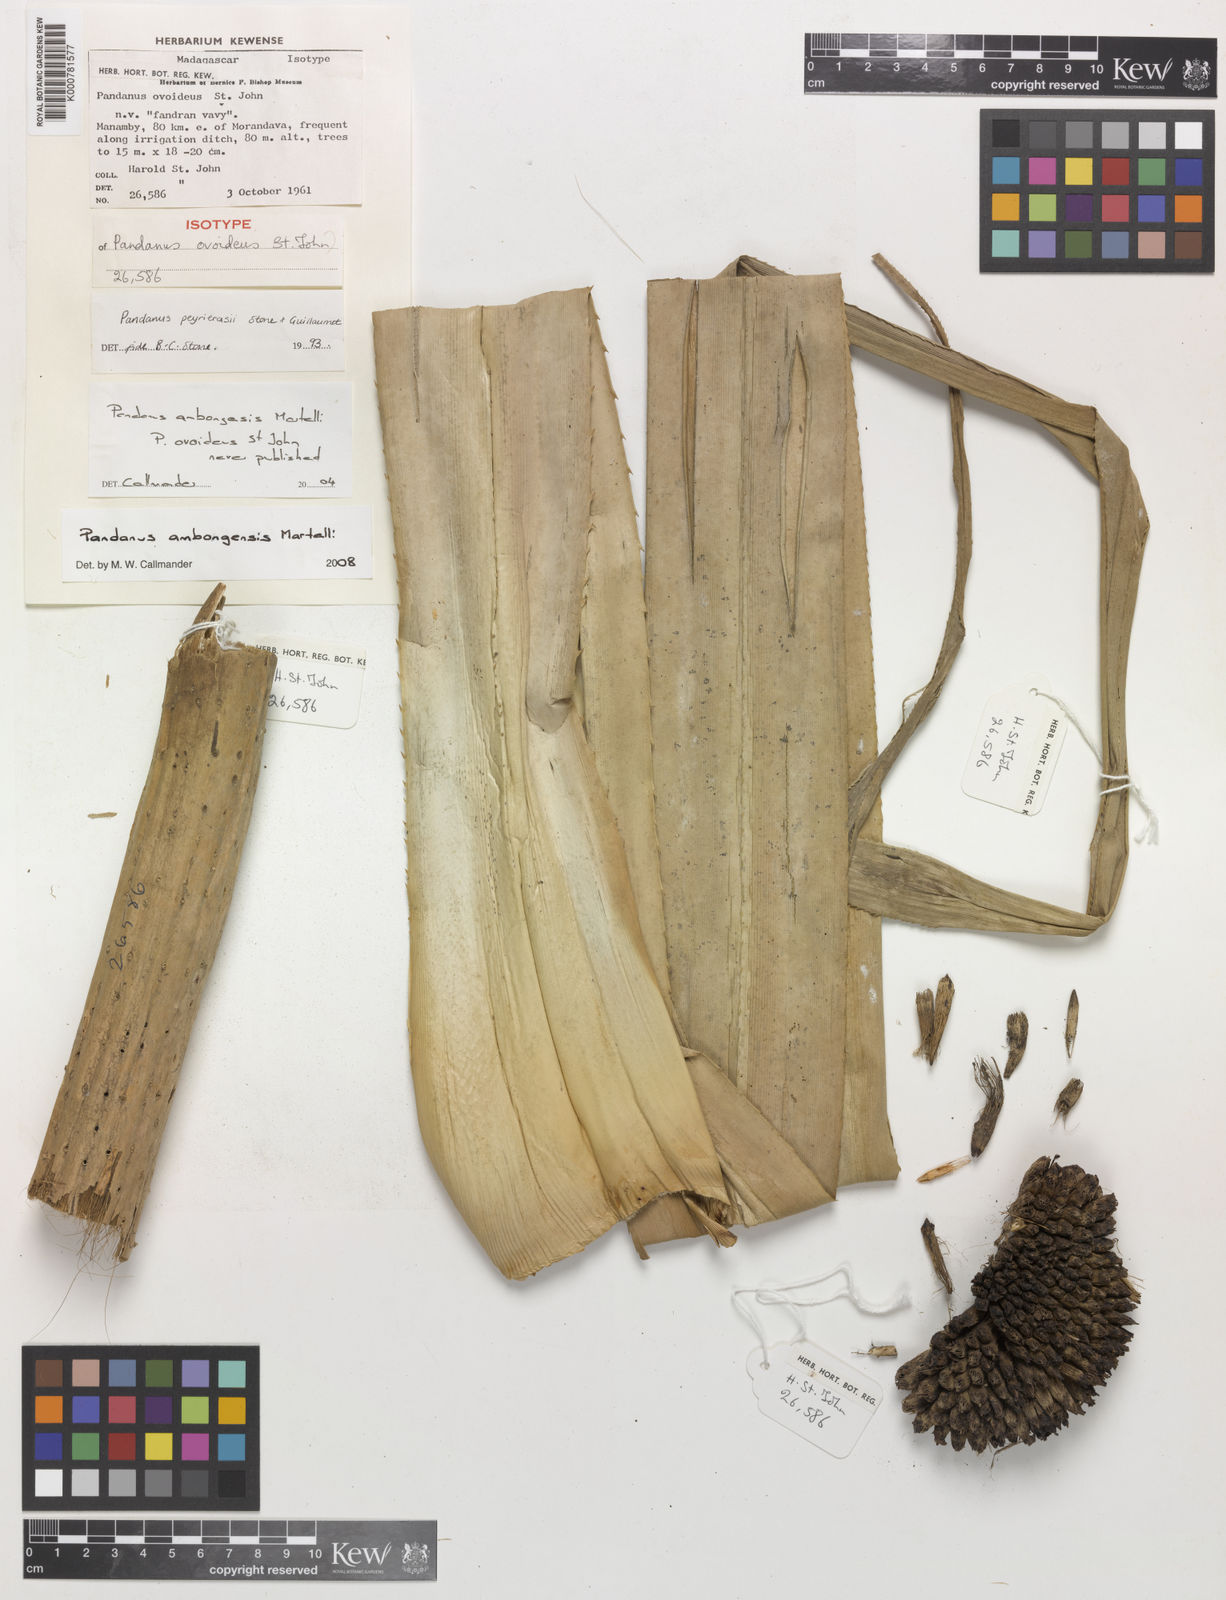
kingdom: Plantae
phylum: Tracheophyta
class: Liliopsida
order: Pandanales
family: Pandanaceae
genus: Pandanus
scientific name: Pandanus ambongensis
